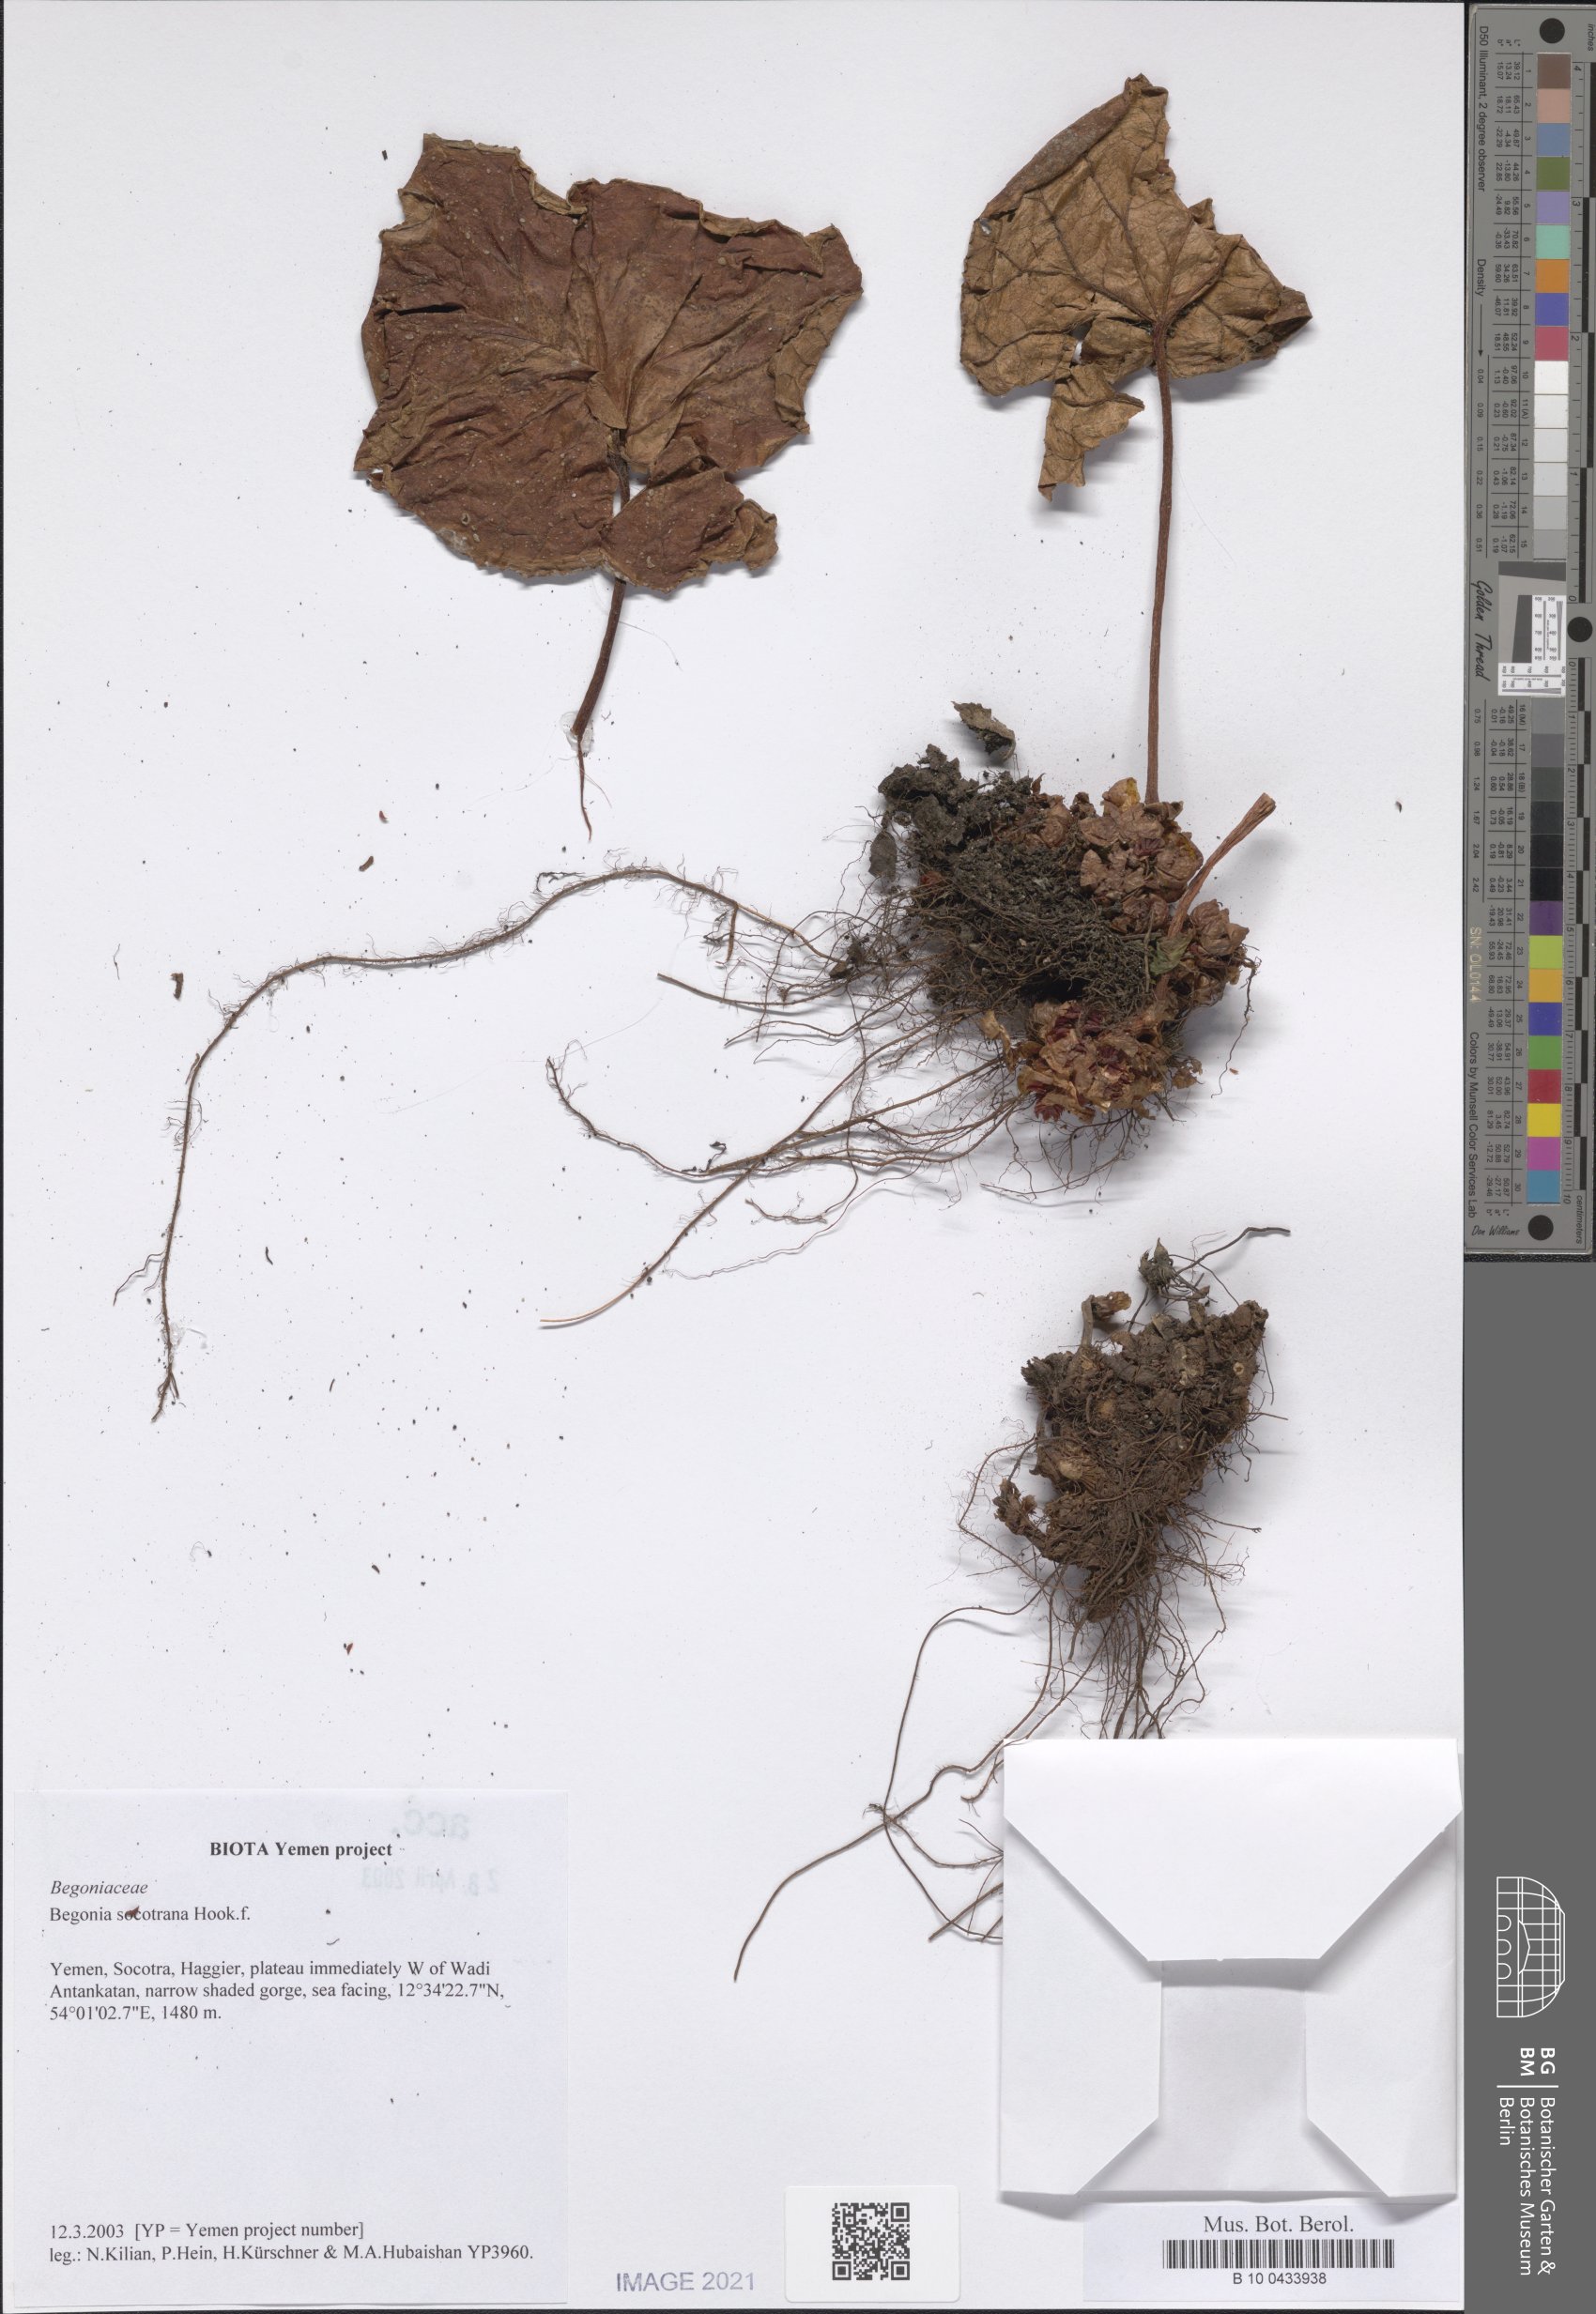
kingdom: Plantae
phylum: Tracheophyta
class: Magnoliopsida
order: Cucurbitales
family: Begoniaceae
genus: Begonia
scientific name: Begonia socotrana
